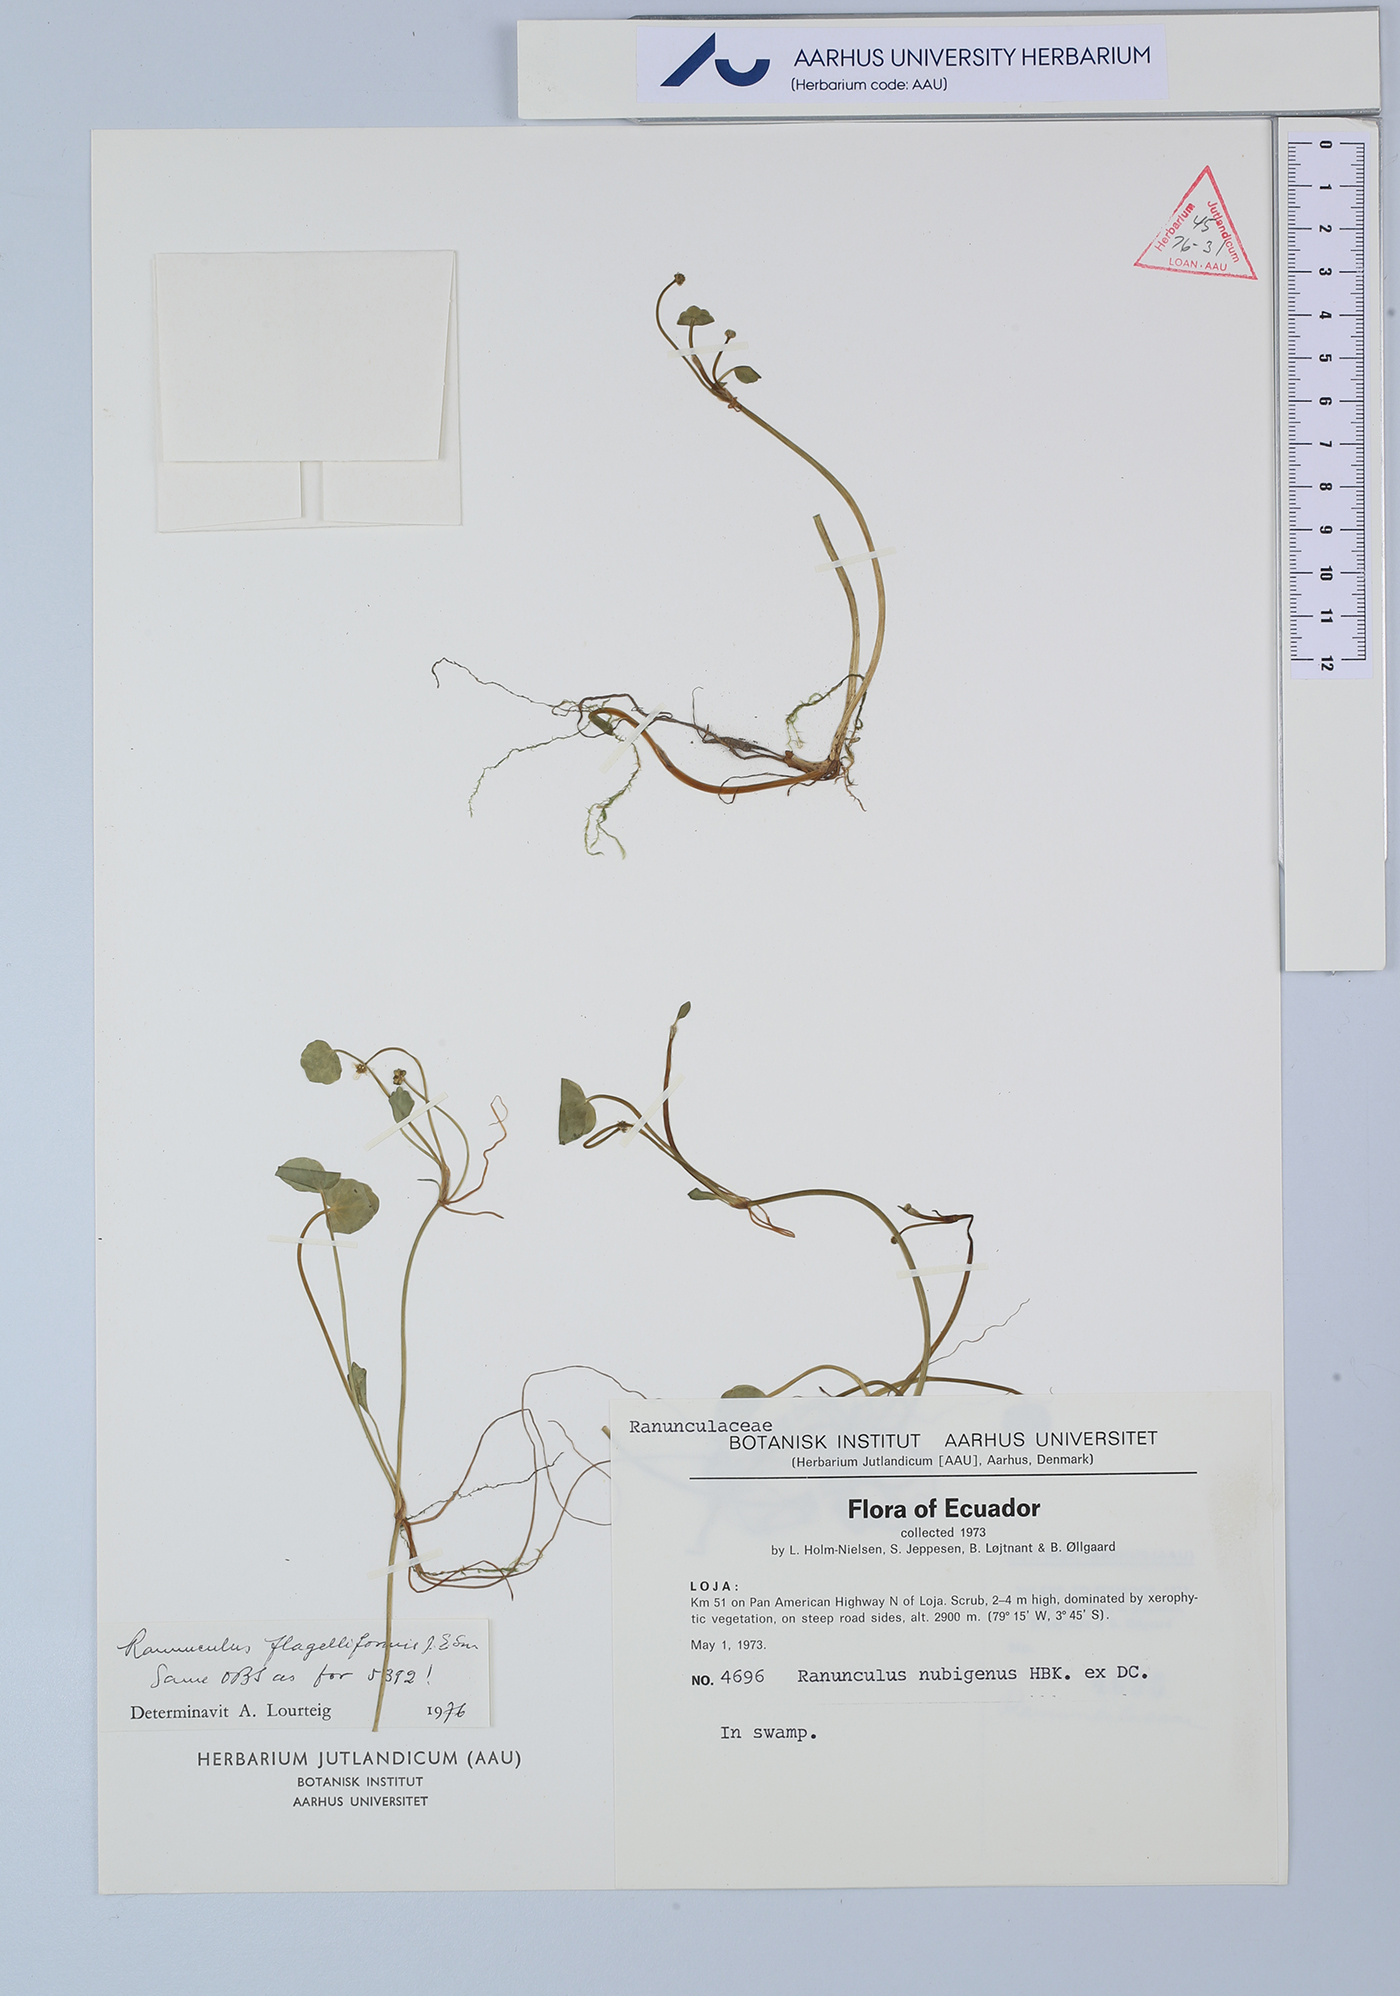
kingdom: Plantae
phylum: Tracheophyta
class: Magnoliopsida
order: Ranunculales
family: Ranunculaceae
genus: Ranunculus
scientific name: Ranunculus flagelliformis
